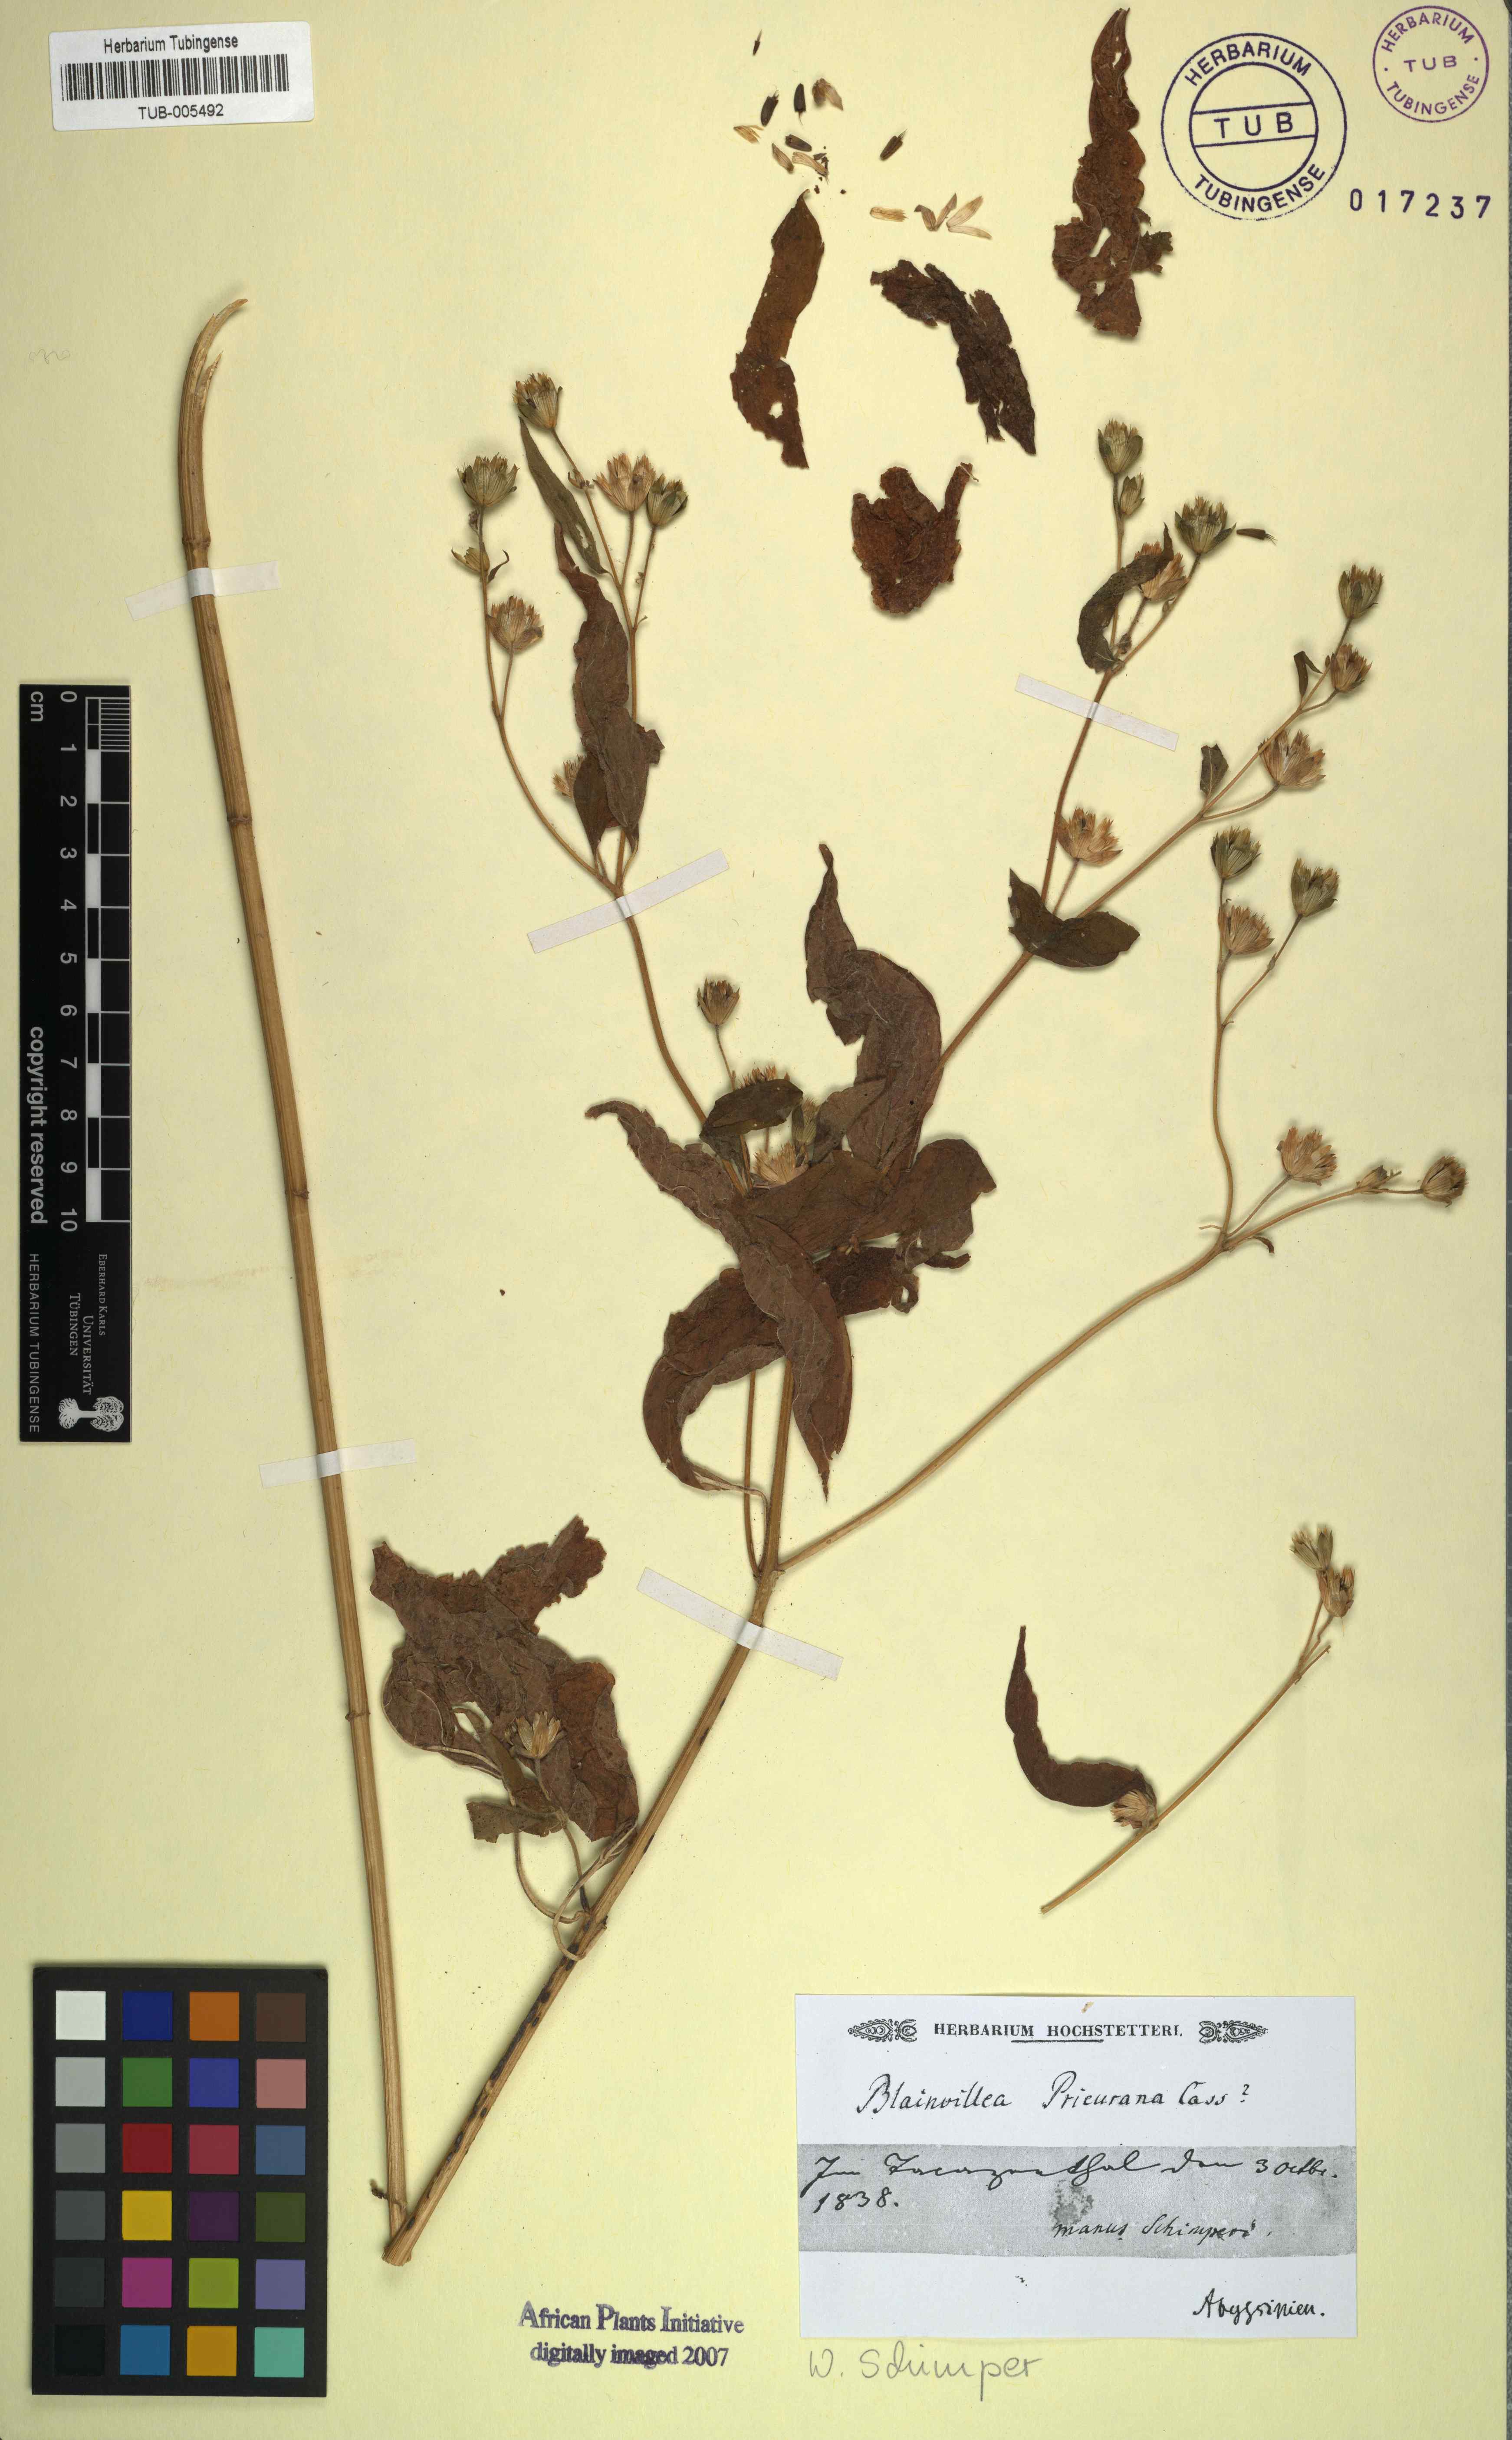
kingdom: Plantae
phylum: Tracheophyta
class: Magnoliopsida
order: Asterales
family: Asteraceae
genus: Aspilia
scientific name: Aspilia helianthoides
